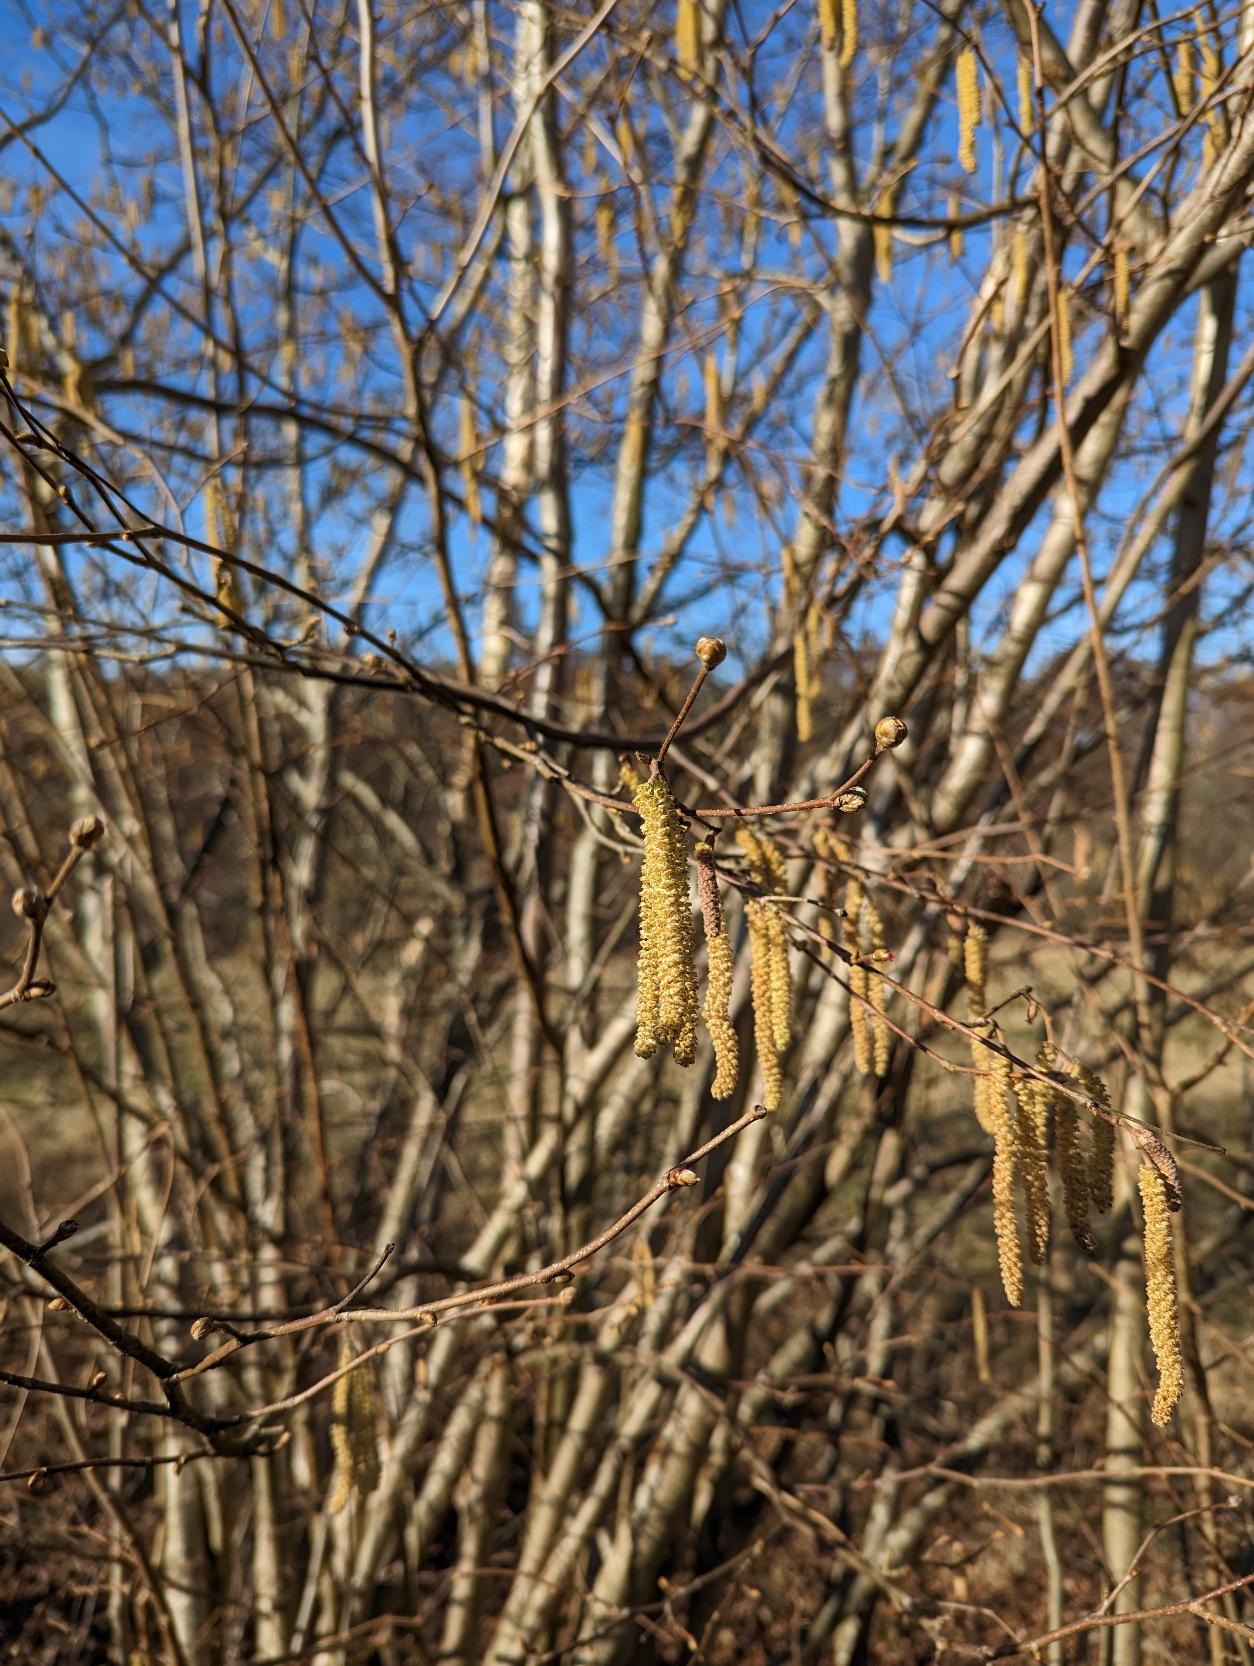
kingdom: Plantae
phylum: Tracheophyta
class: Magnoliopsida
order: Fagales
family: Betulaceae
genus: Corylus
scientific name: Corylus avellana
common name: Hassel
